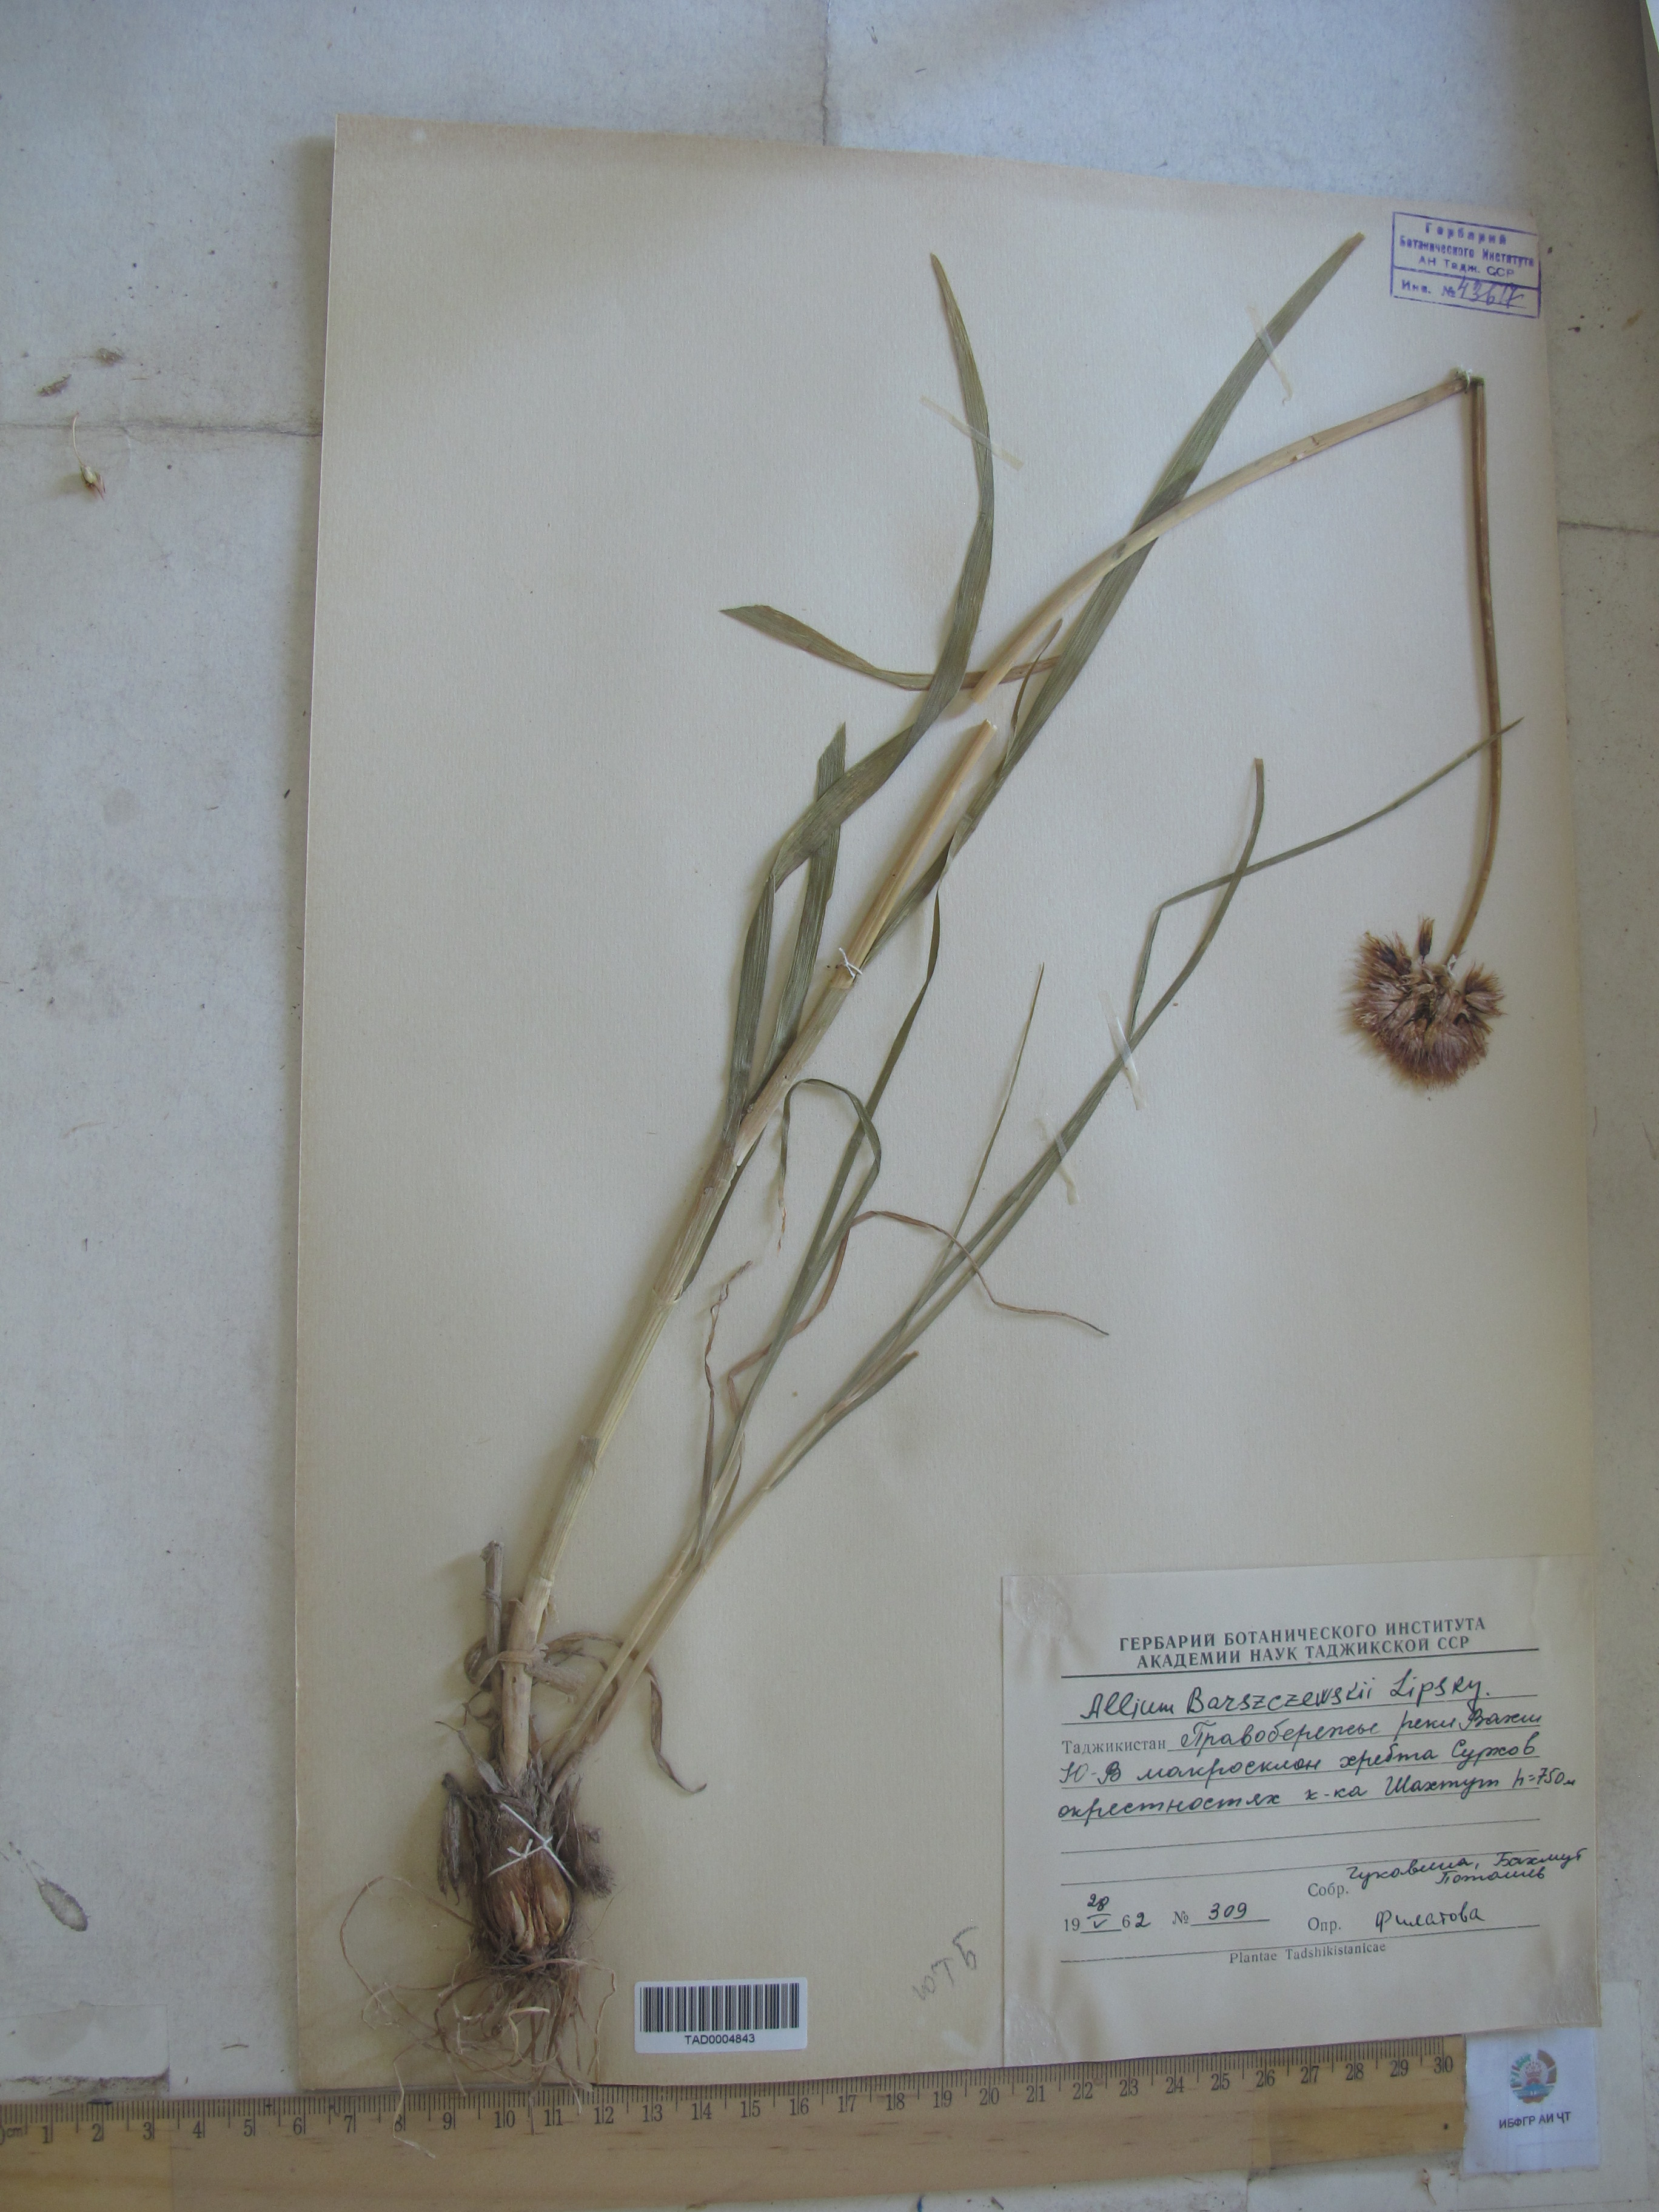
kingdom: Plantae
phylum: Tracheophyta
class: Liliopsida
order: Asparagales
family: Amaryllidaceae
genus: Allium
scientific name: Allium barsczewskii
